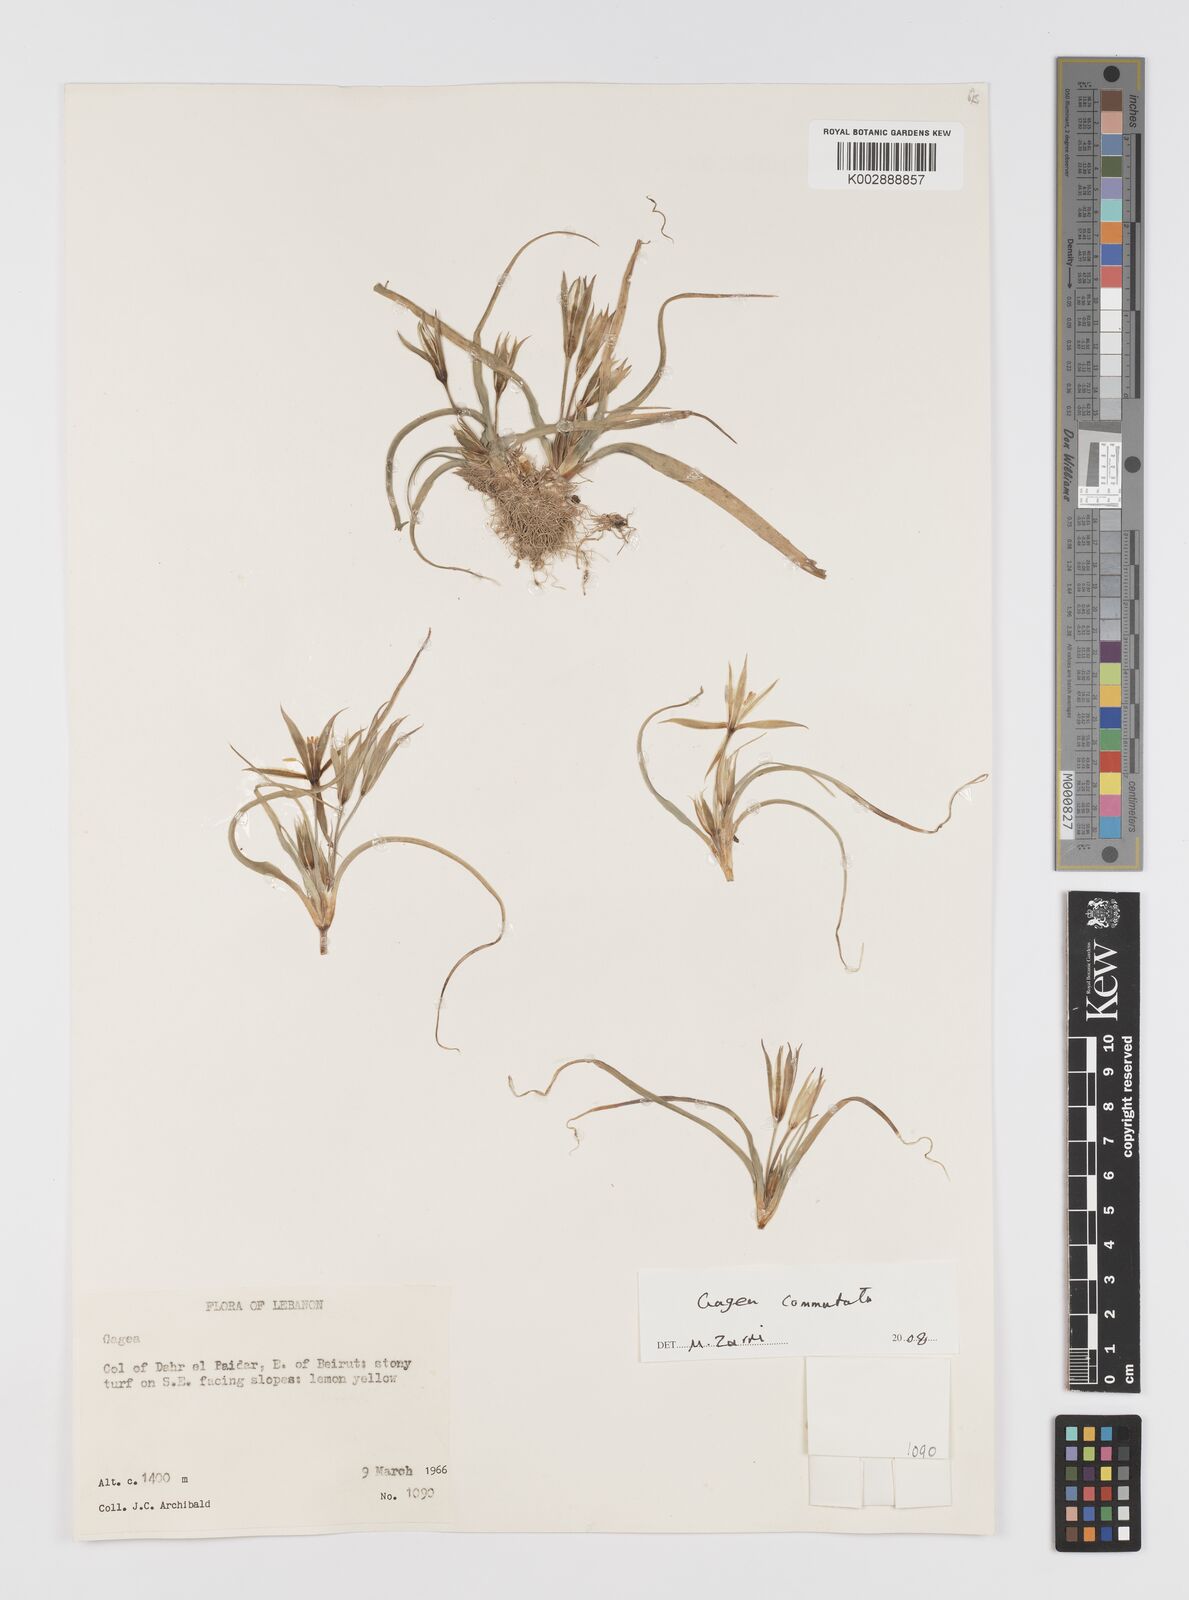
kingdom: Plantae
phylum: Tracheophyta
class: Liliopsida
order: Liliales
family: Liliaceae
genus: Gagea
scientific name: Gagea
